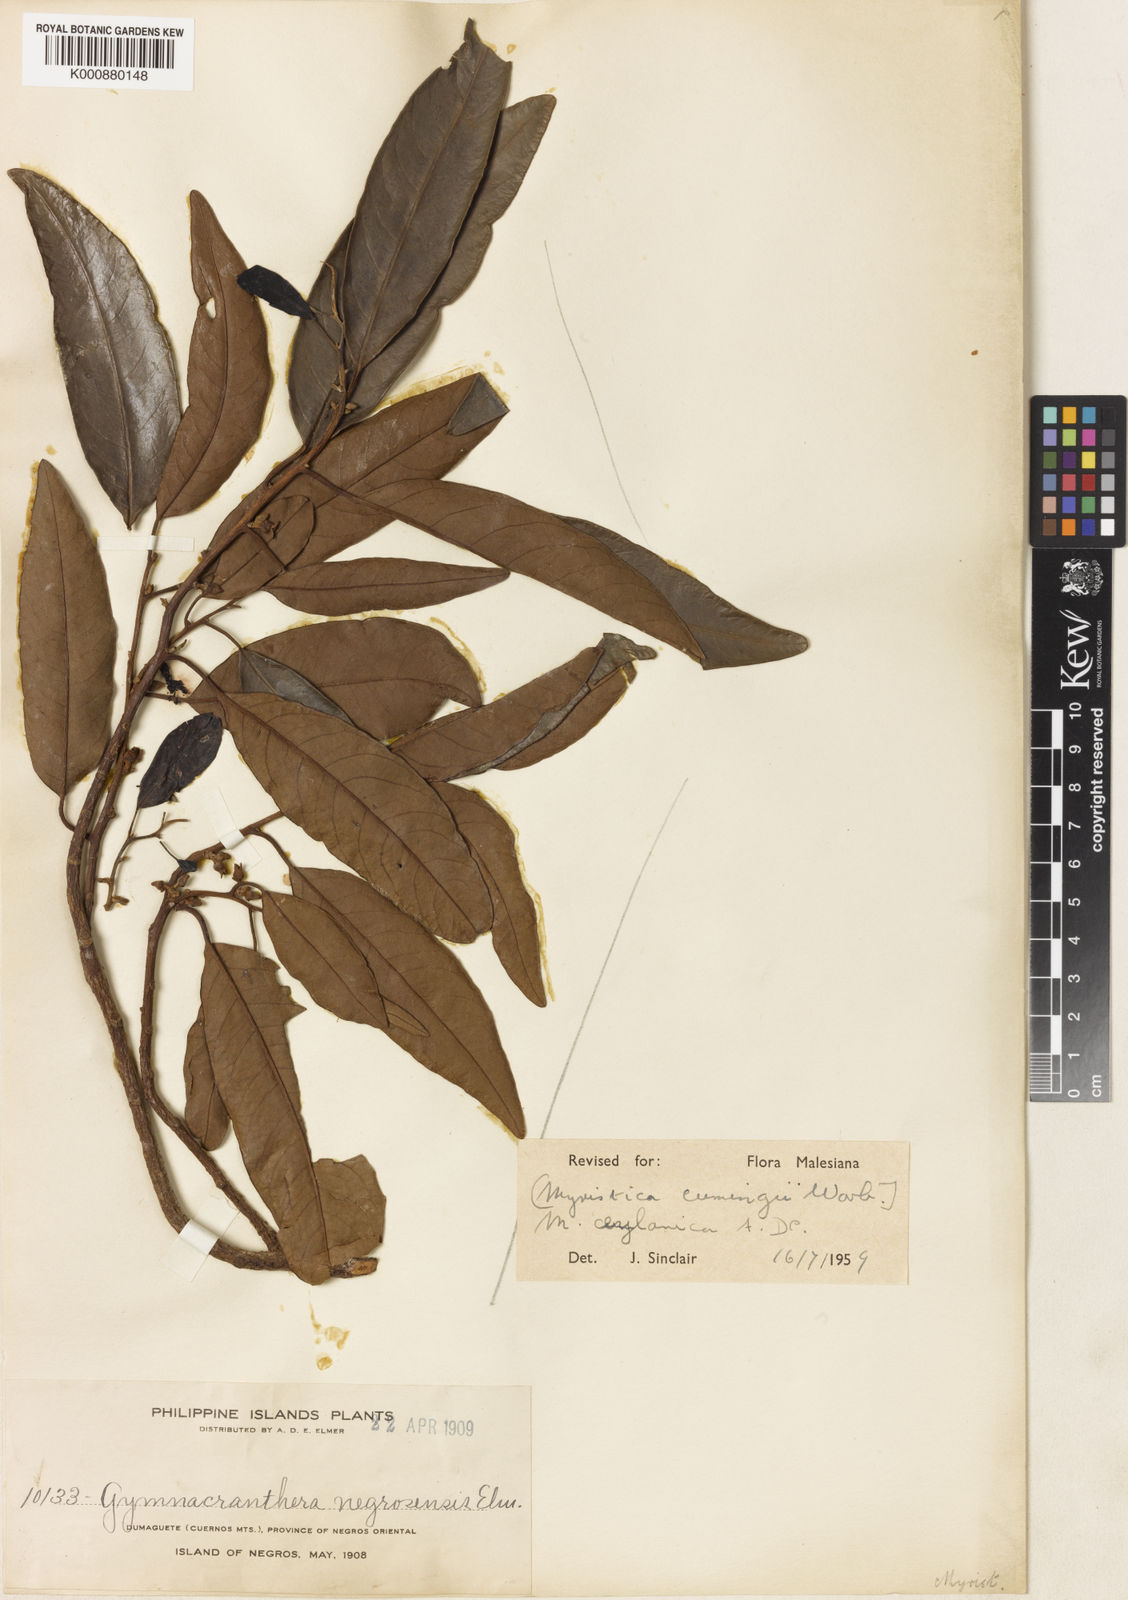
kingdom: Plantae
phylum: Tracheophyta
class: Magnoliopsida
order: Magnoliales
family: Myristicaceae
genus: Myristica
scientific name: Myristica ceylanica
